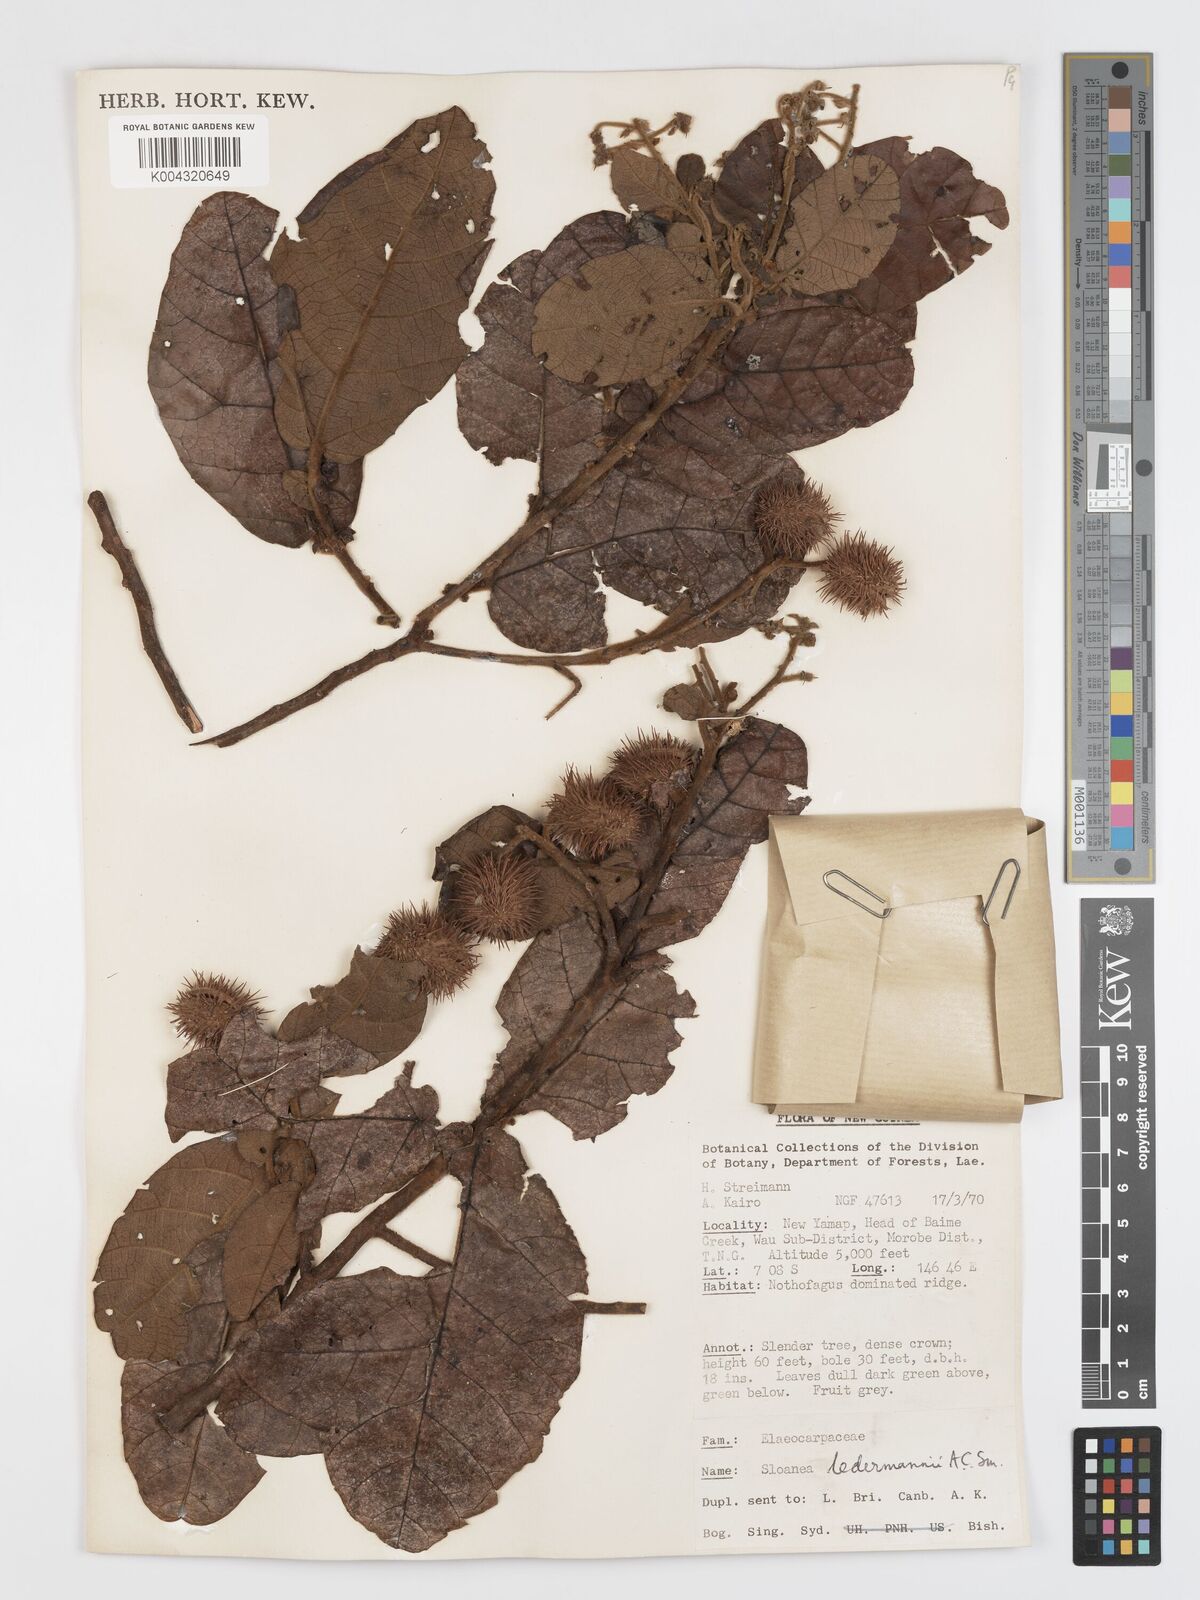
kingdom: Plantae
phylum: Tracheophyta
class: Magnoliopsida
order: Oxalidales
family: Elaeocarpaceae
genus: Sloanea
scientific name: Sloanea ledermannii
